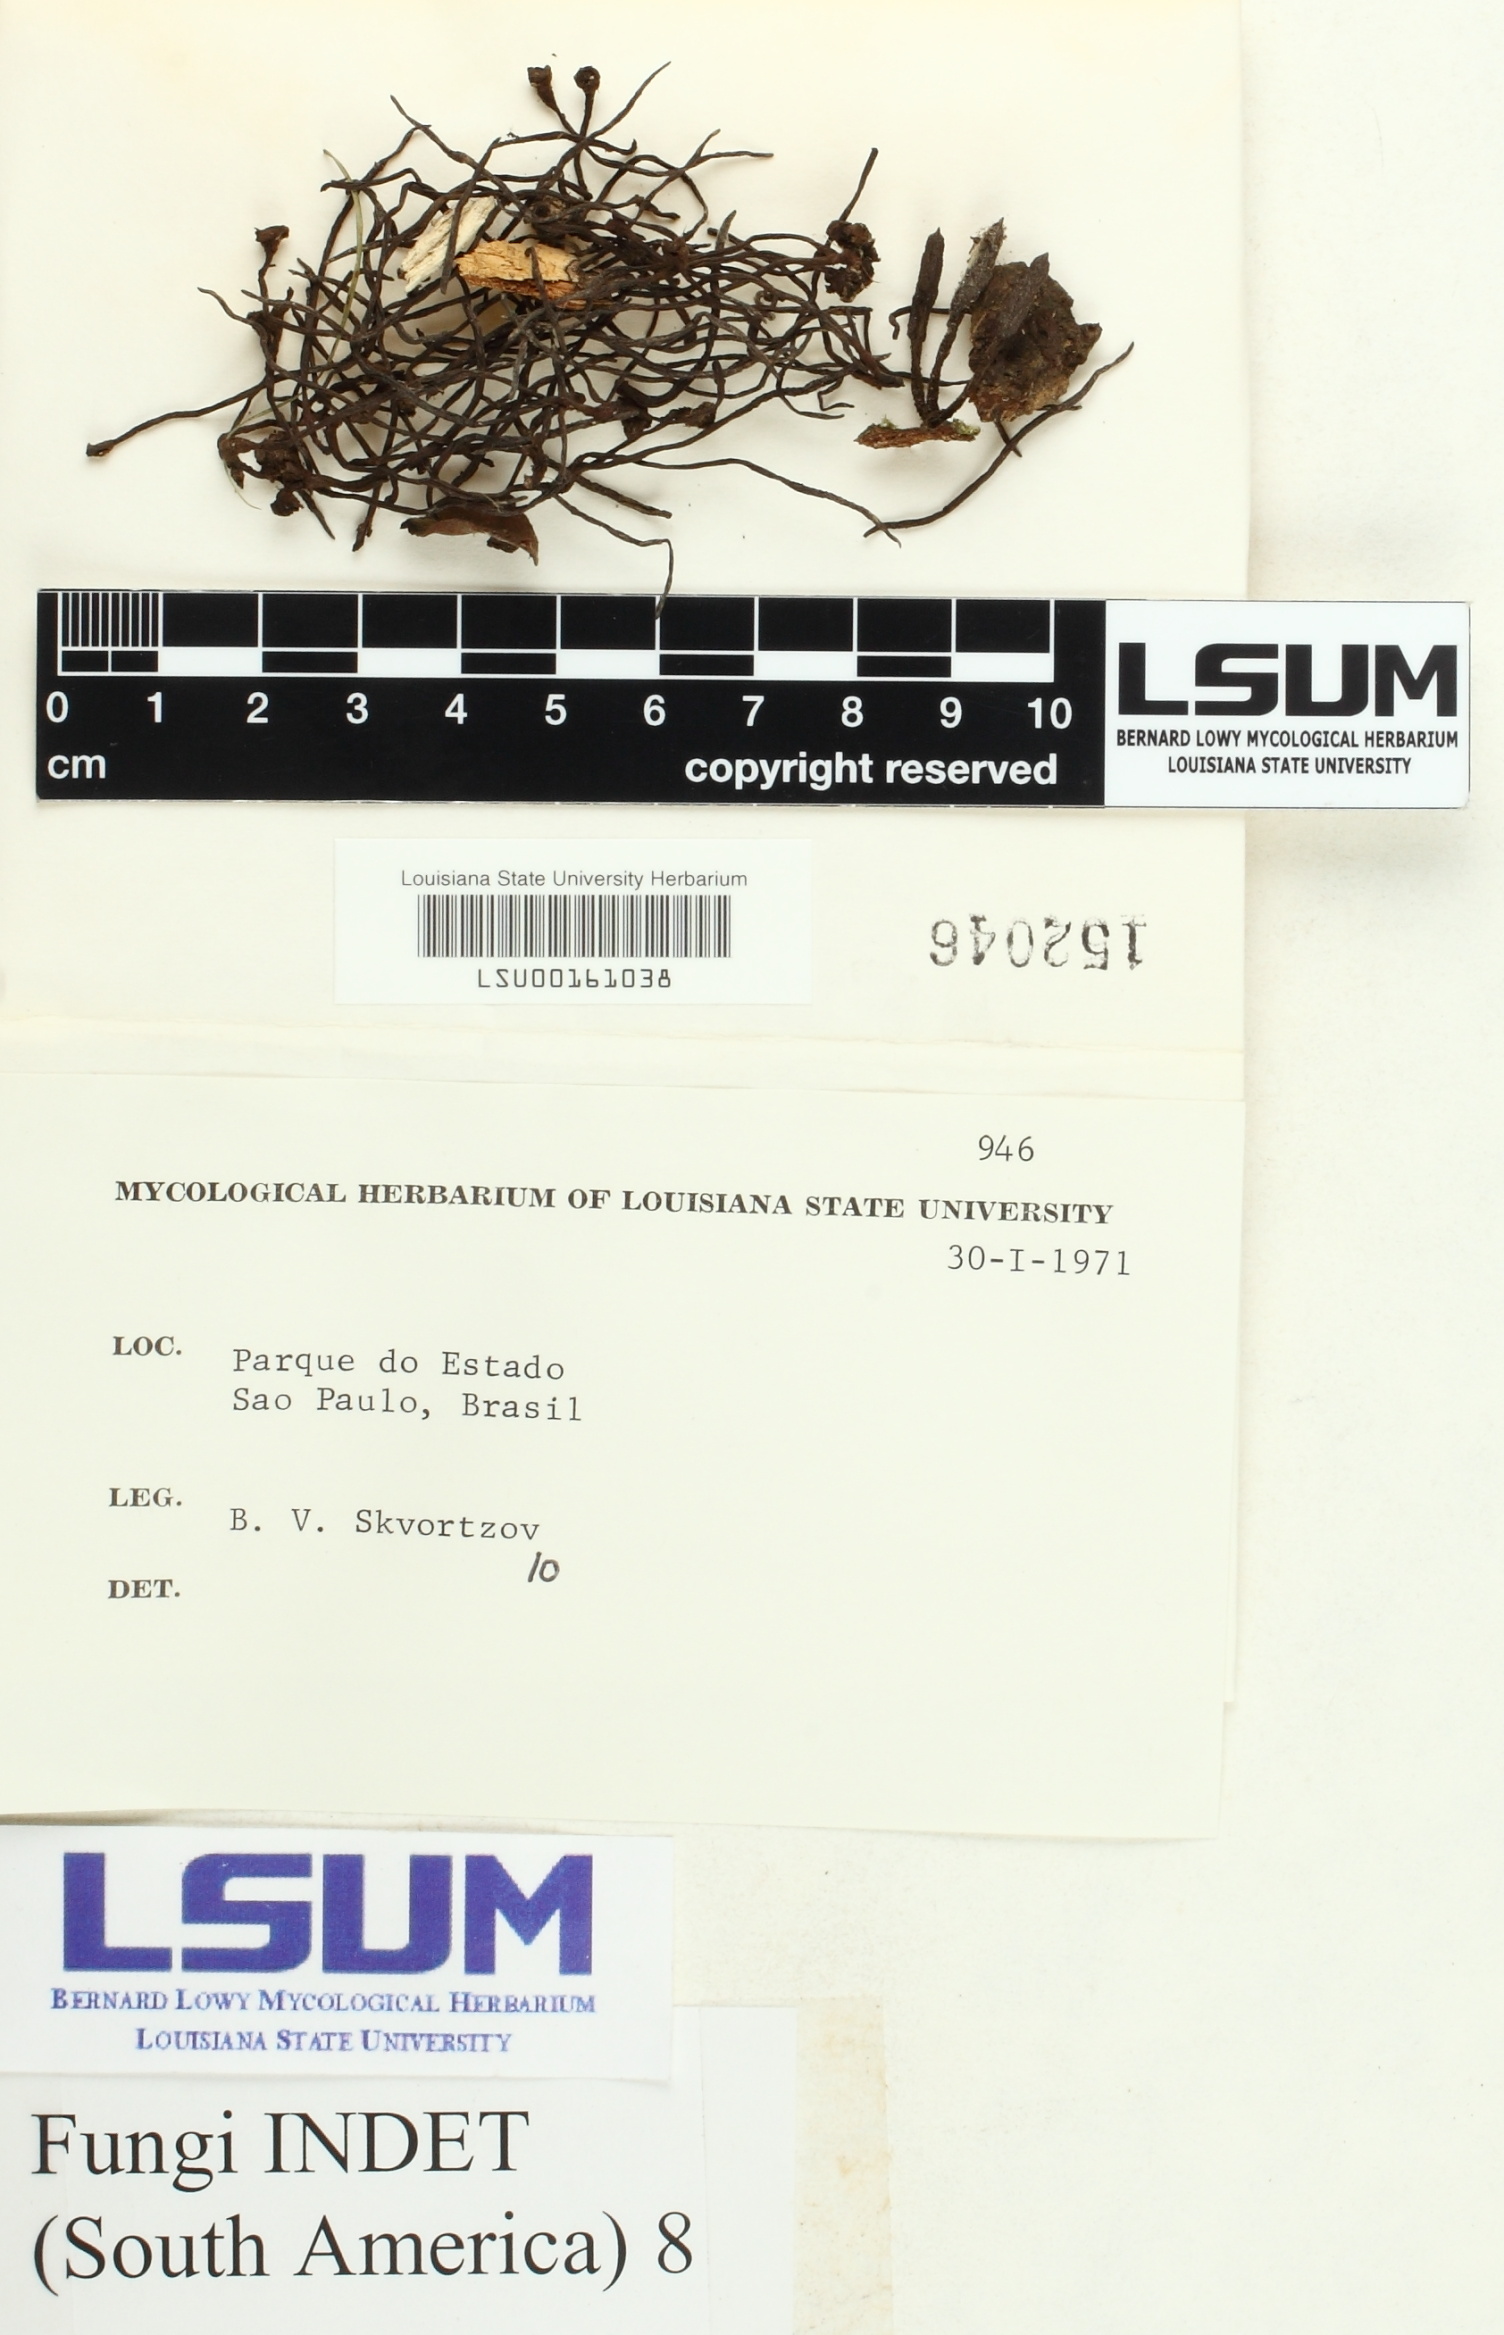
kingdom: Fungi
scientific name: Fungi
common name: Fungi
